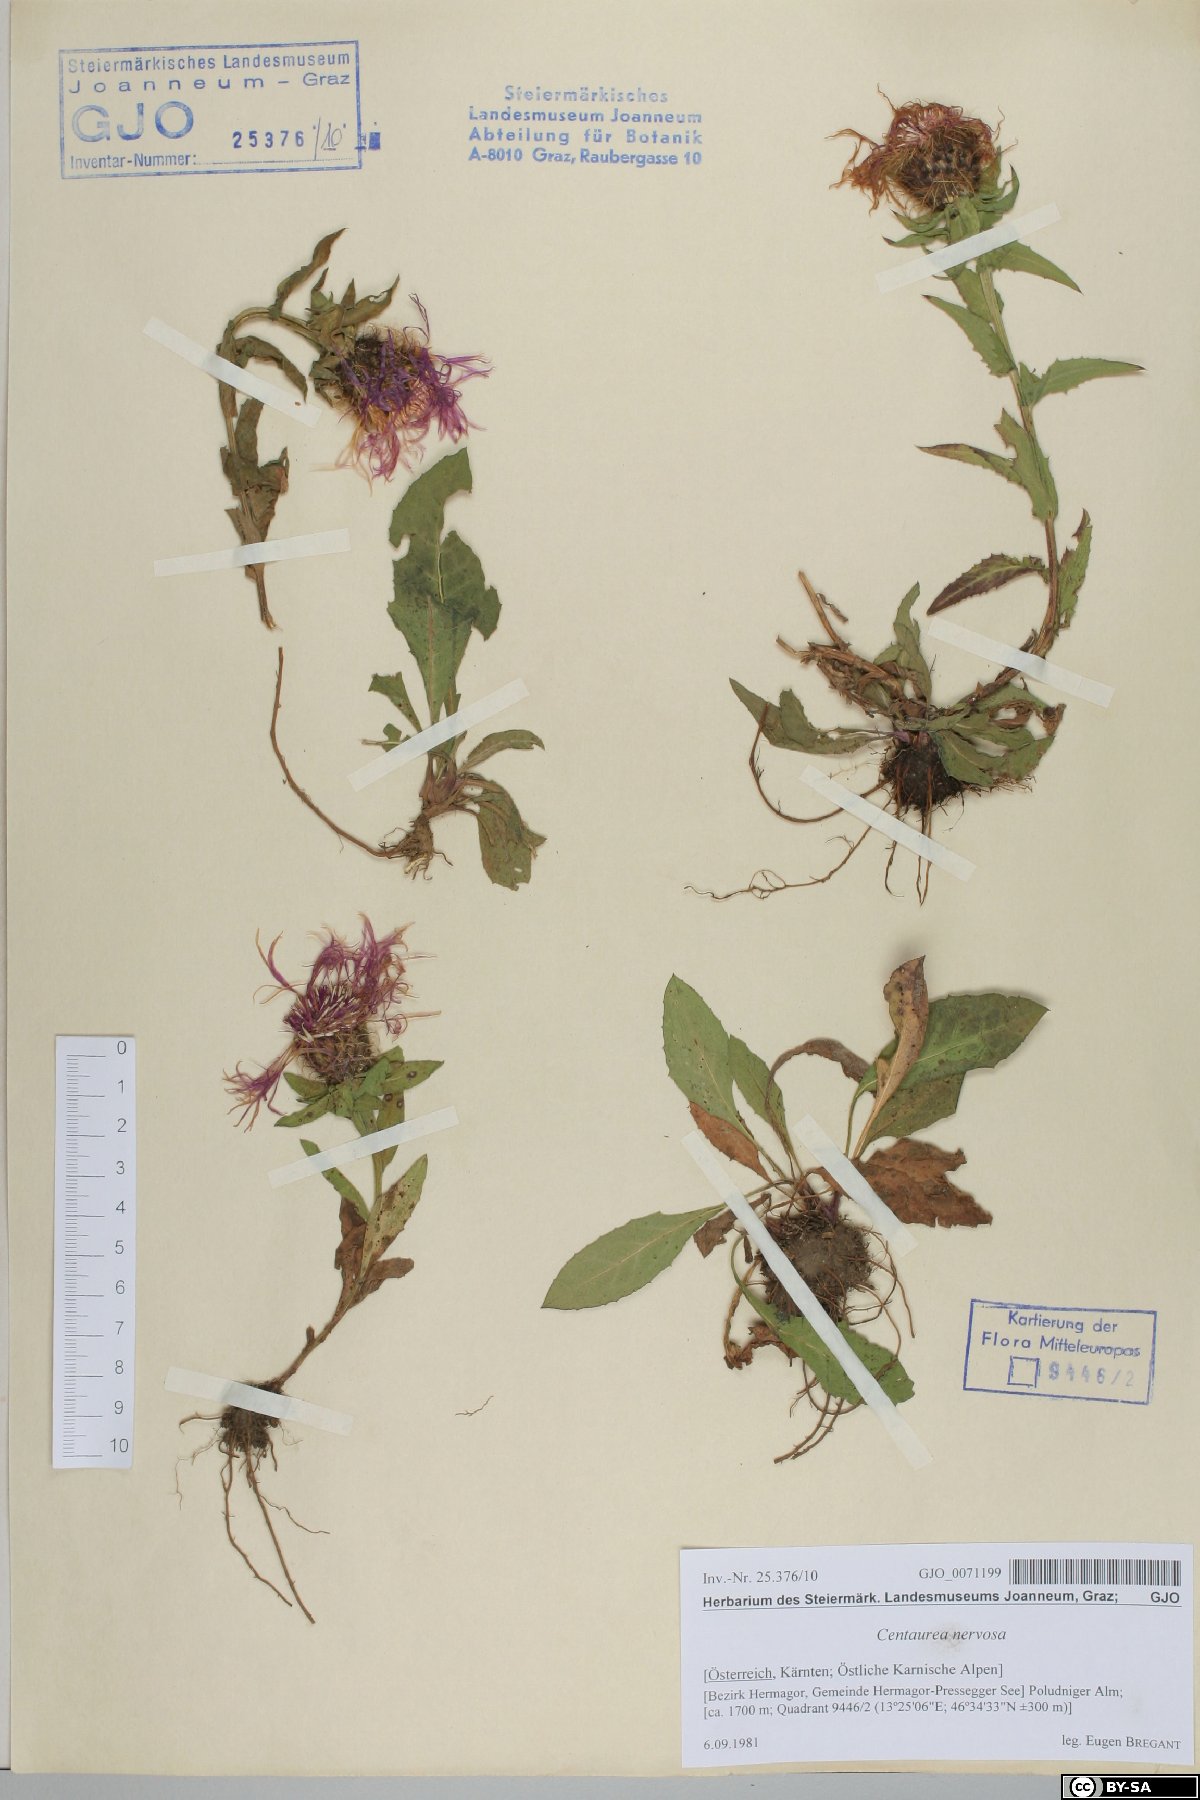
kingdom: Plantae
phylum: Tracheophyta
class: Magnoliopsida
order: Asterales
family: Asteraceae
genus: Centaurea
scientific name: Centaurea nervosa
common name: Singleflower knapweed
